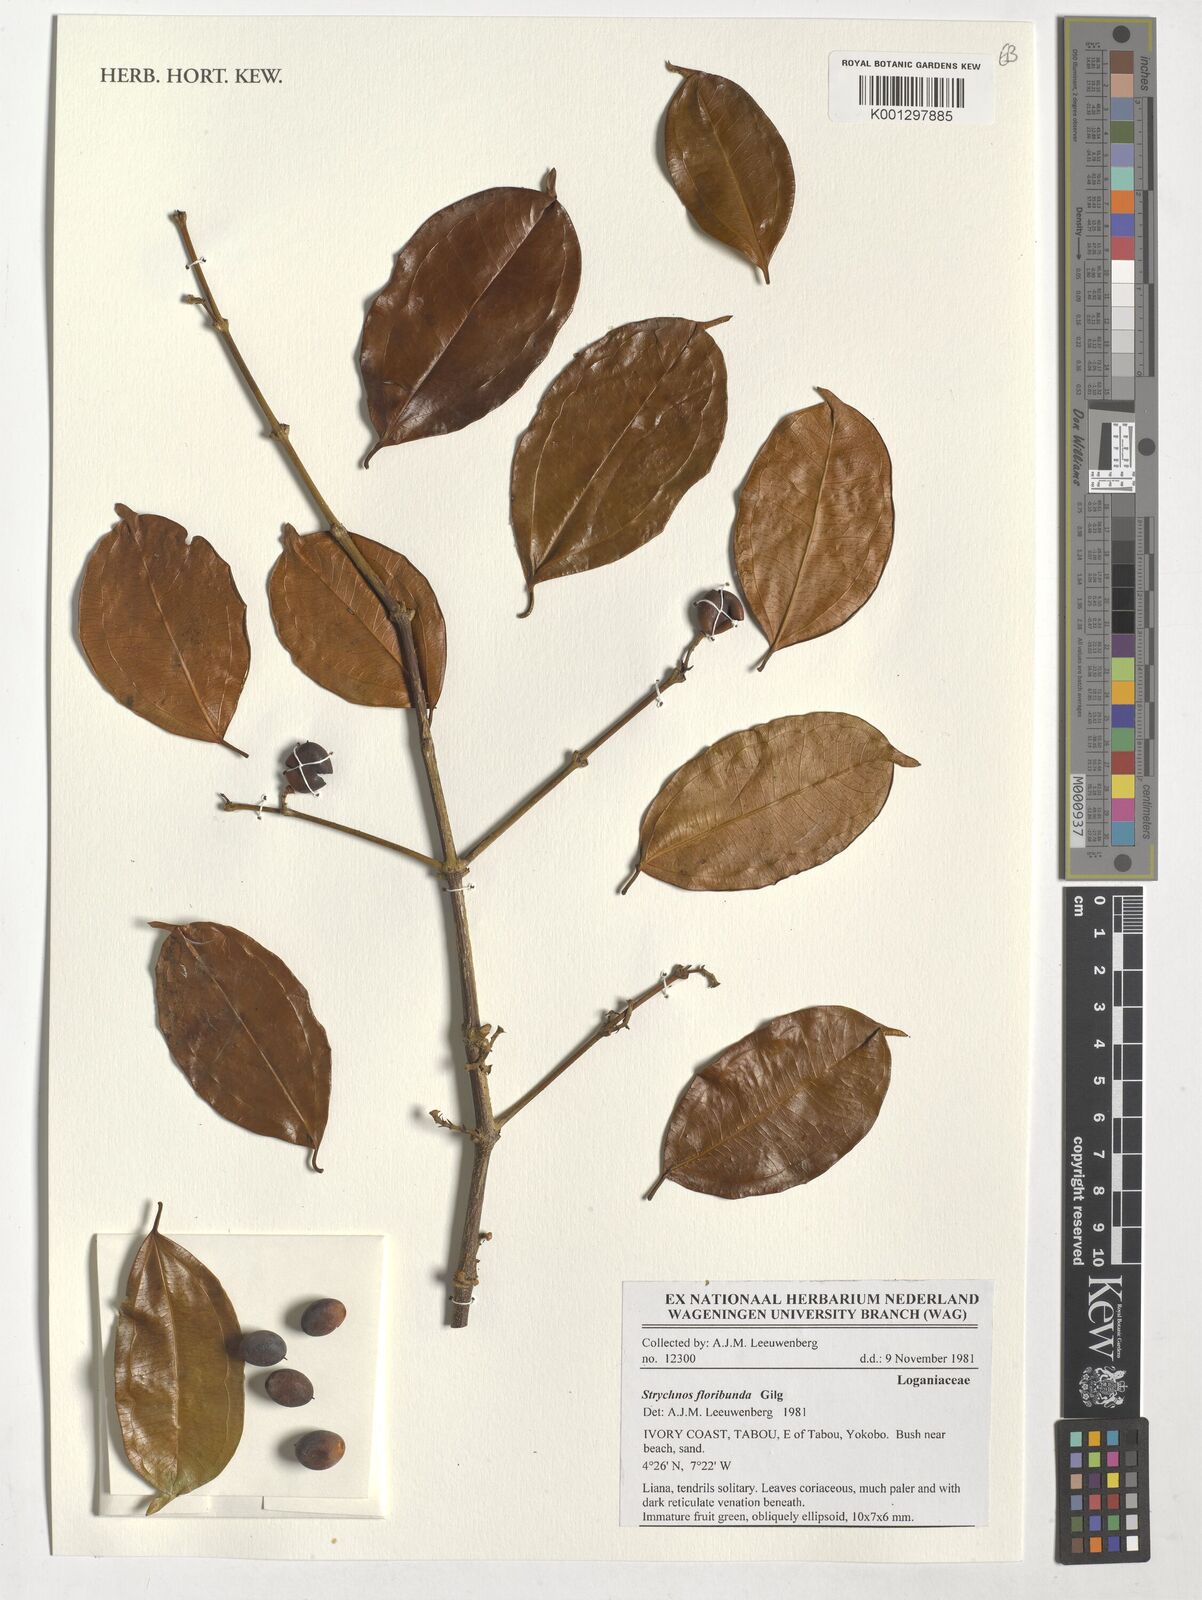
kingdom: Plantae
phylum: Tracheophyta
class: Magnoliopsida
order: Gentianales
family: Loganiaceae
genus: Strychnos
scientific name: Strychnos floribunda
